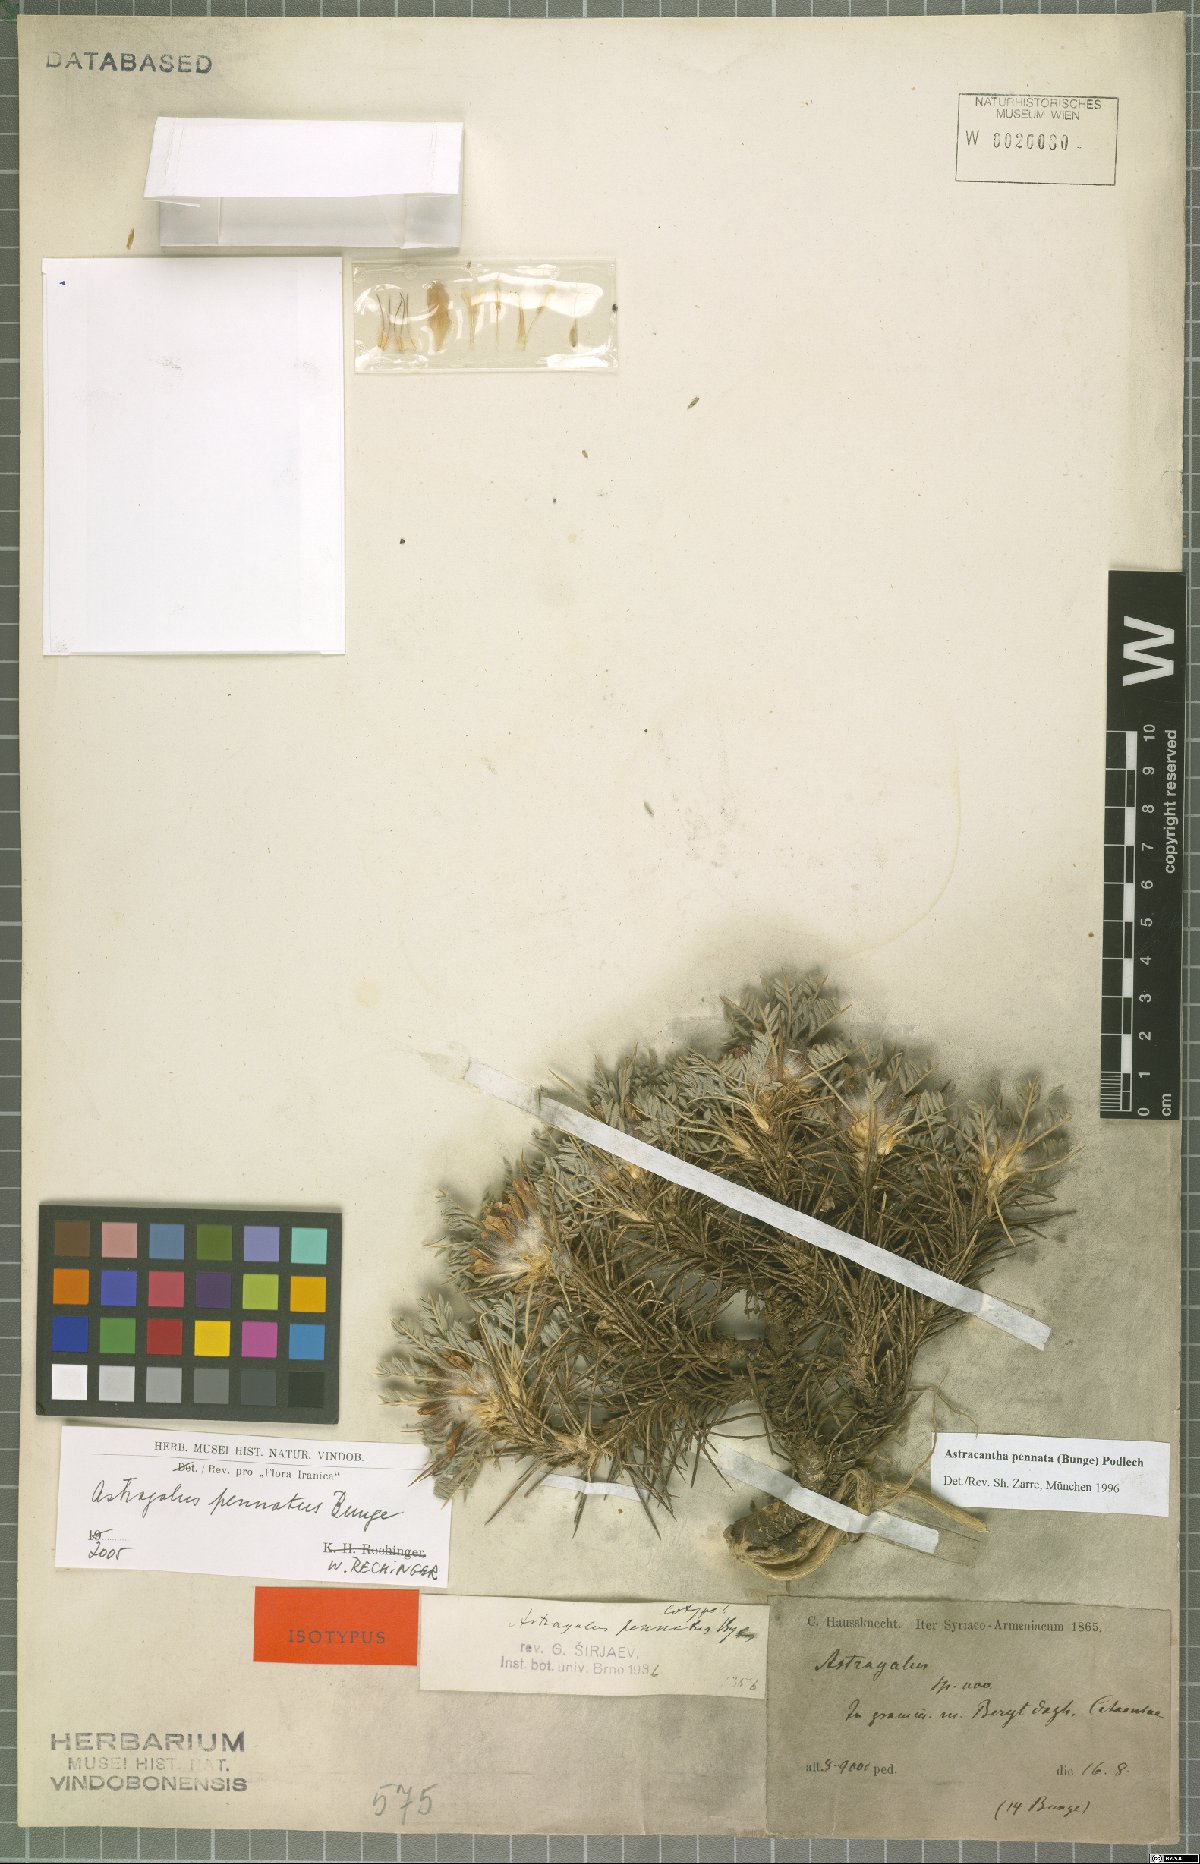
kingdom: Plantae
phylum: Tracheophyta
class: Magnoliopsida
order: Fabales
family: Fabaceae
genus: Astragalus
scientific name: Astragalus pennatus
